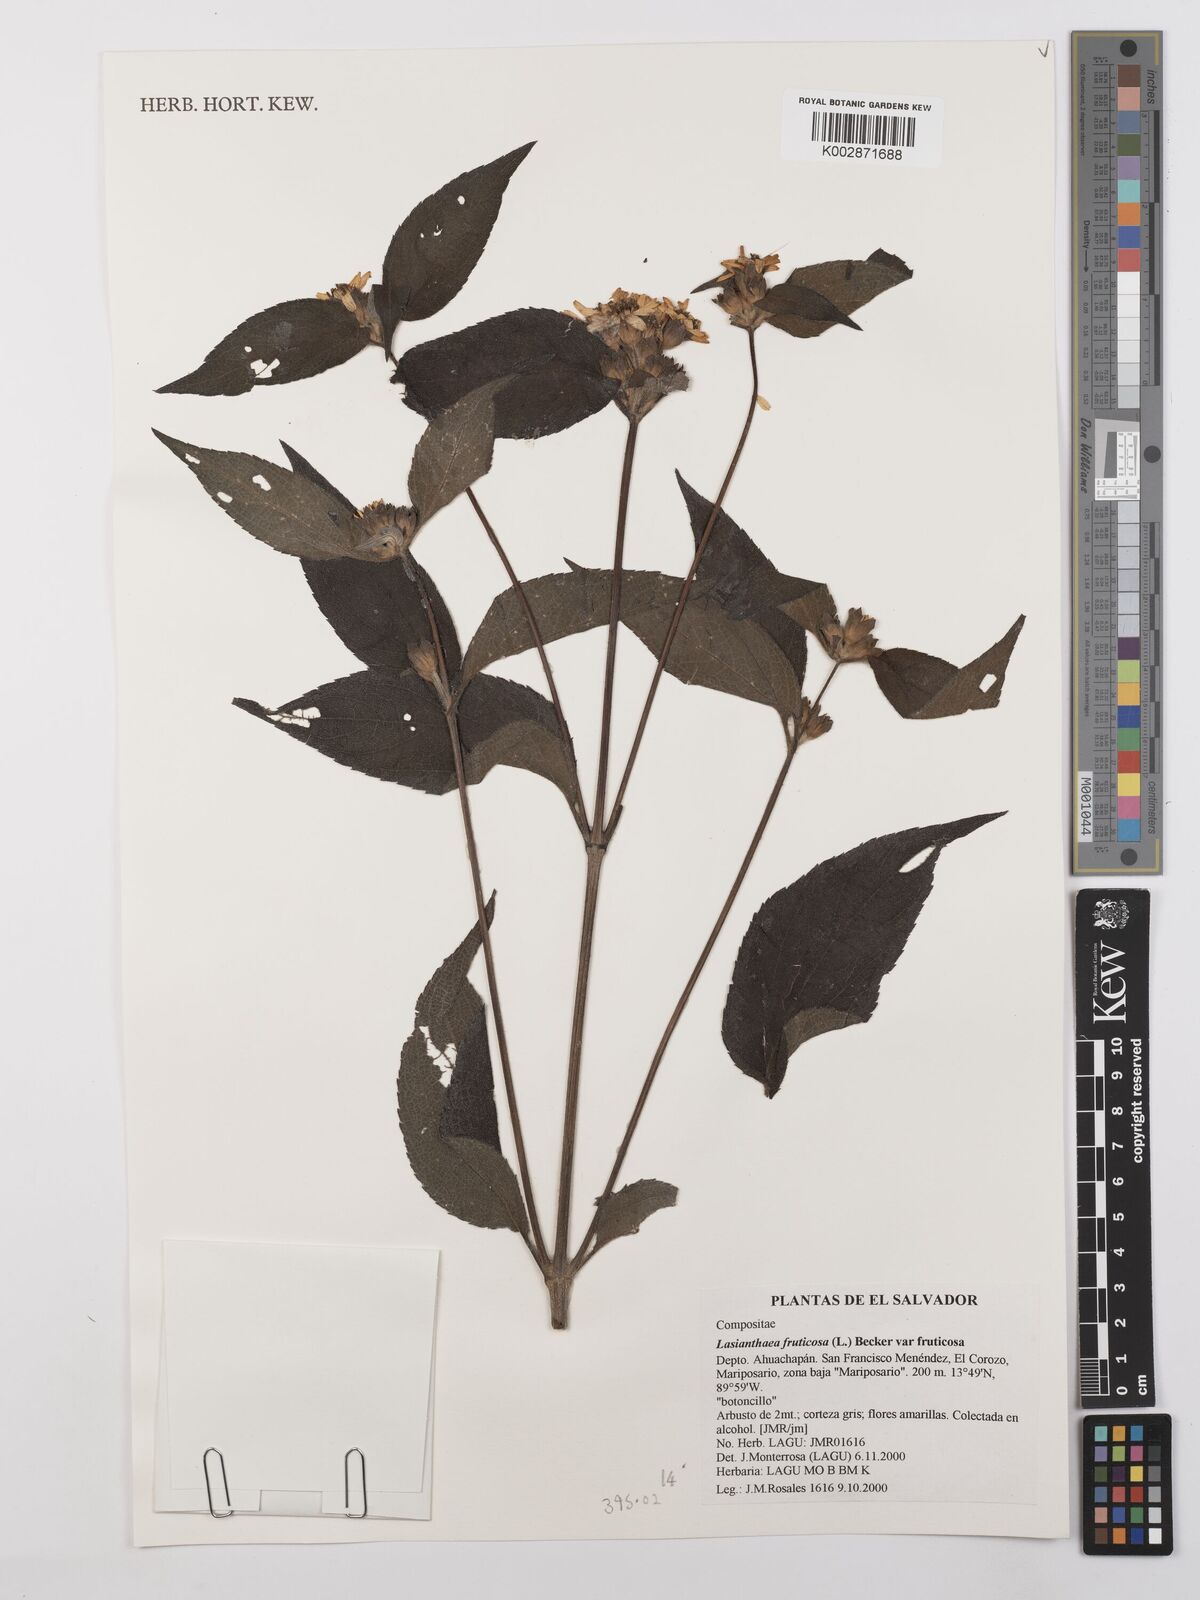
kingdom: Plantae
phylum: Tracheophyta
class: Magnoliopsida
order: Asterales
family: Asteraceae
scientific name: Asteraceae
